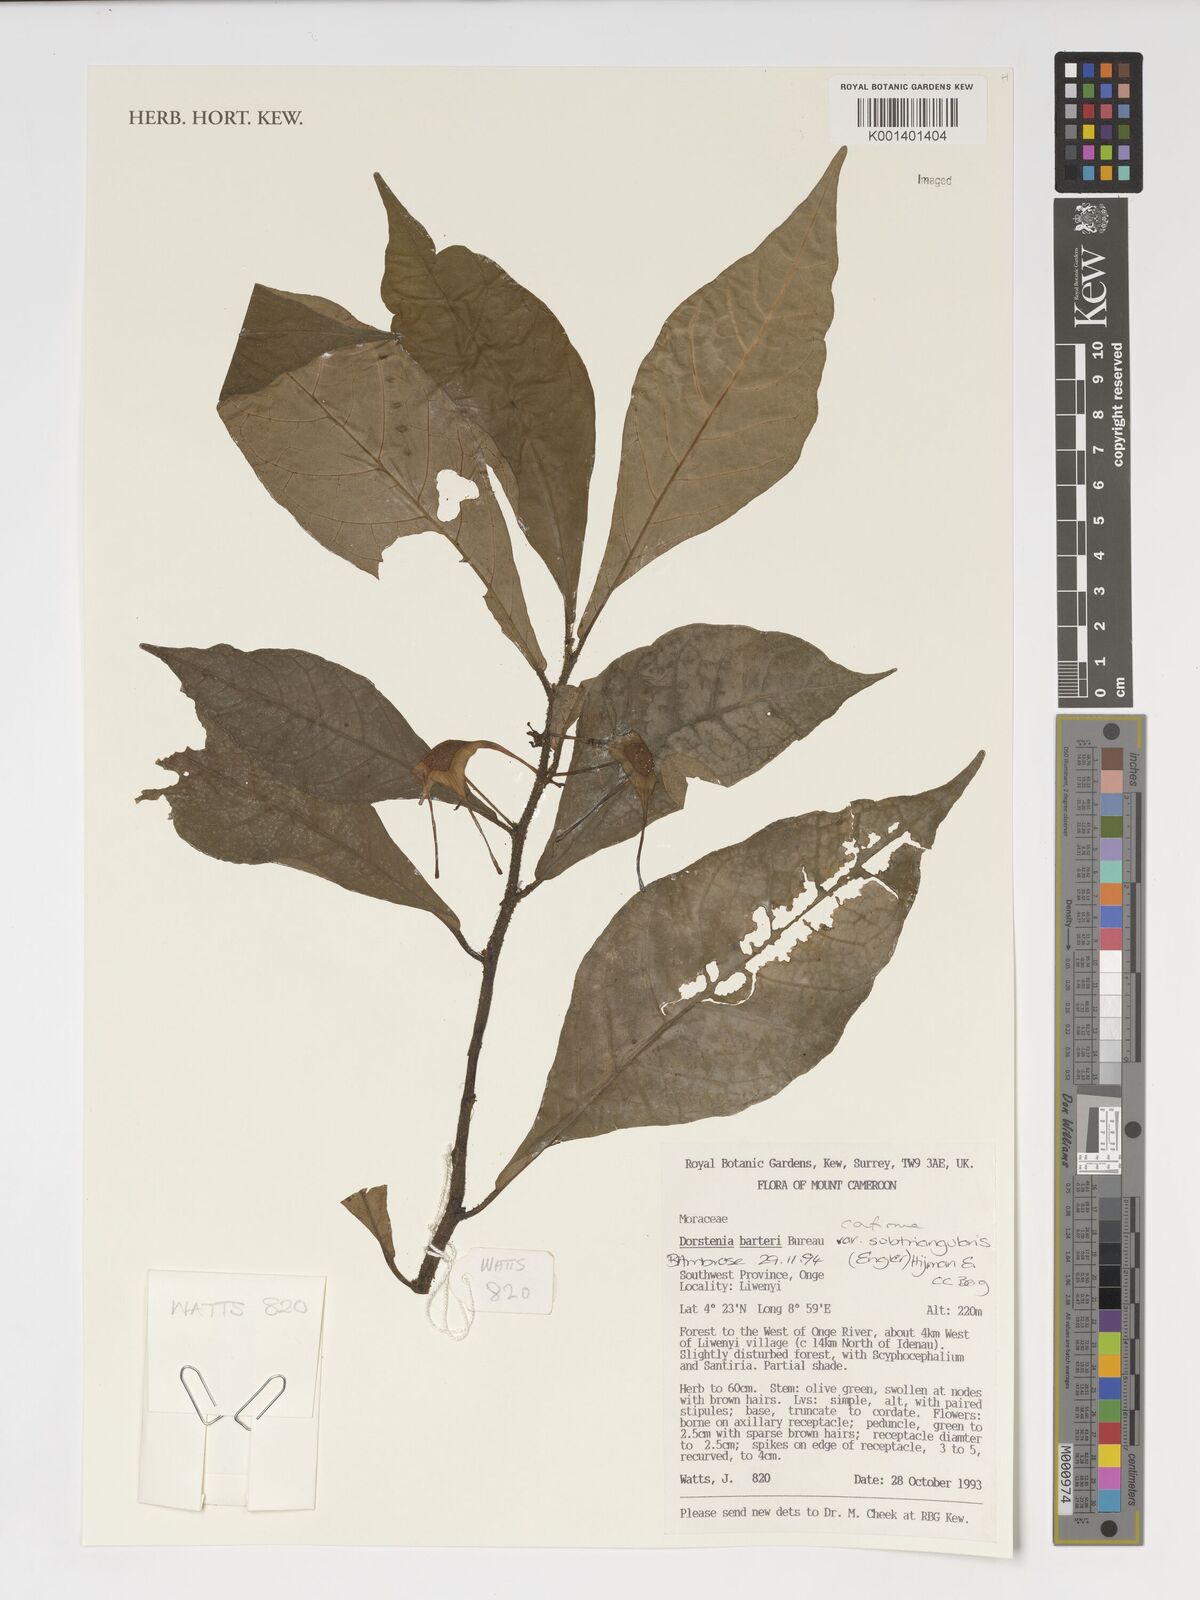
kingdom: Plantae
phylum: Tracheophyta
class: Magnoliopsida
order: Rosales
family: Moraceae
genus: Dorstenia
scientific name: Dorstenia barteri
